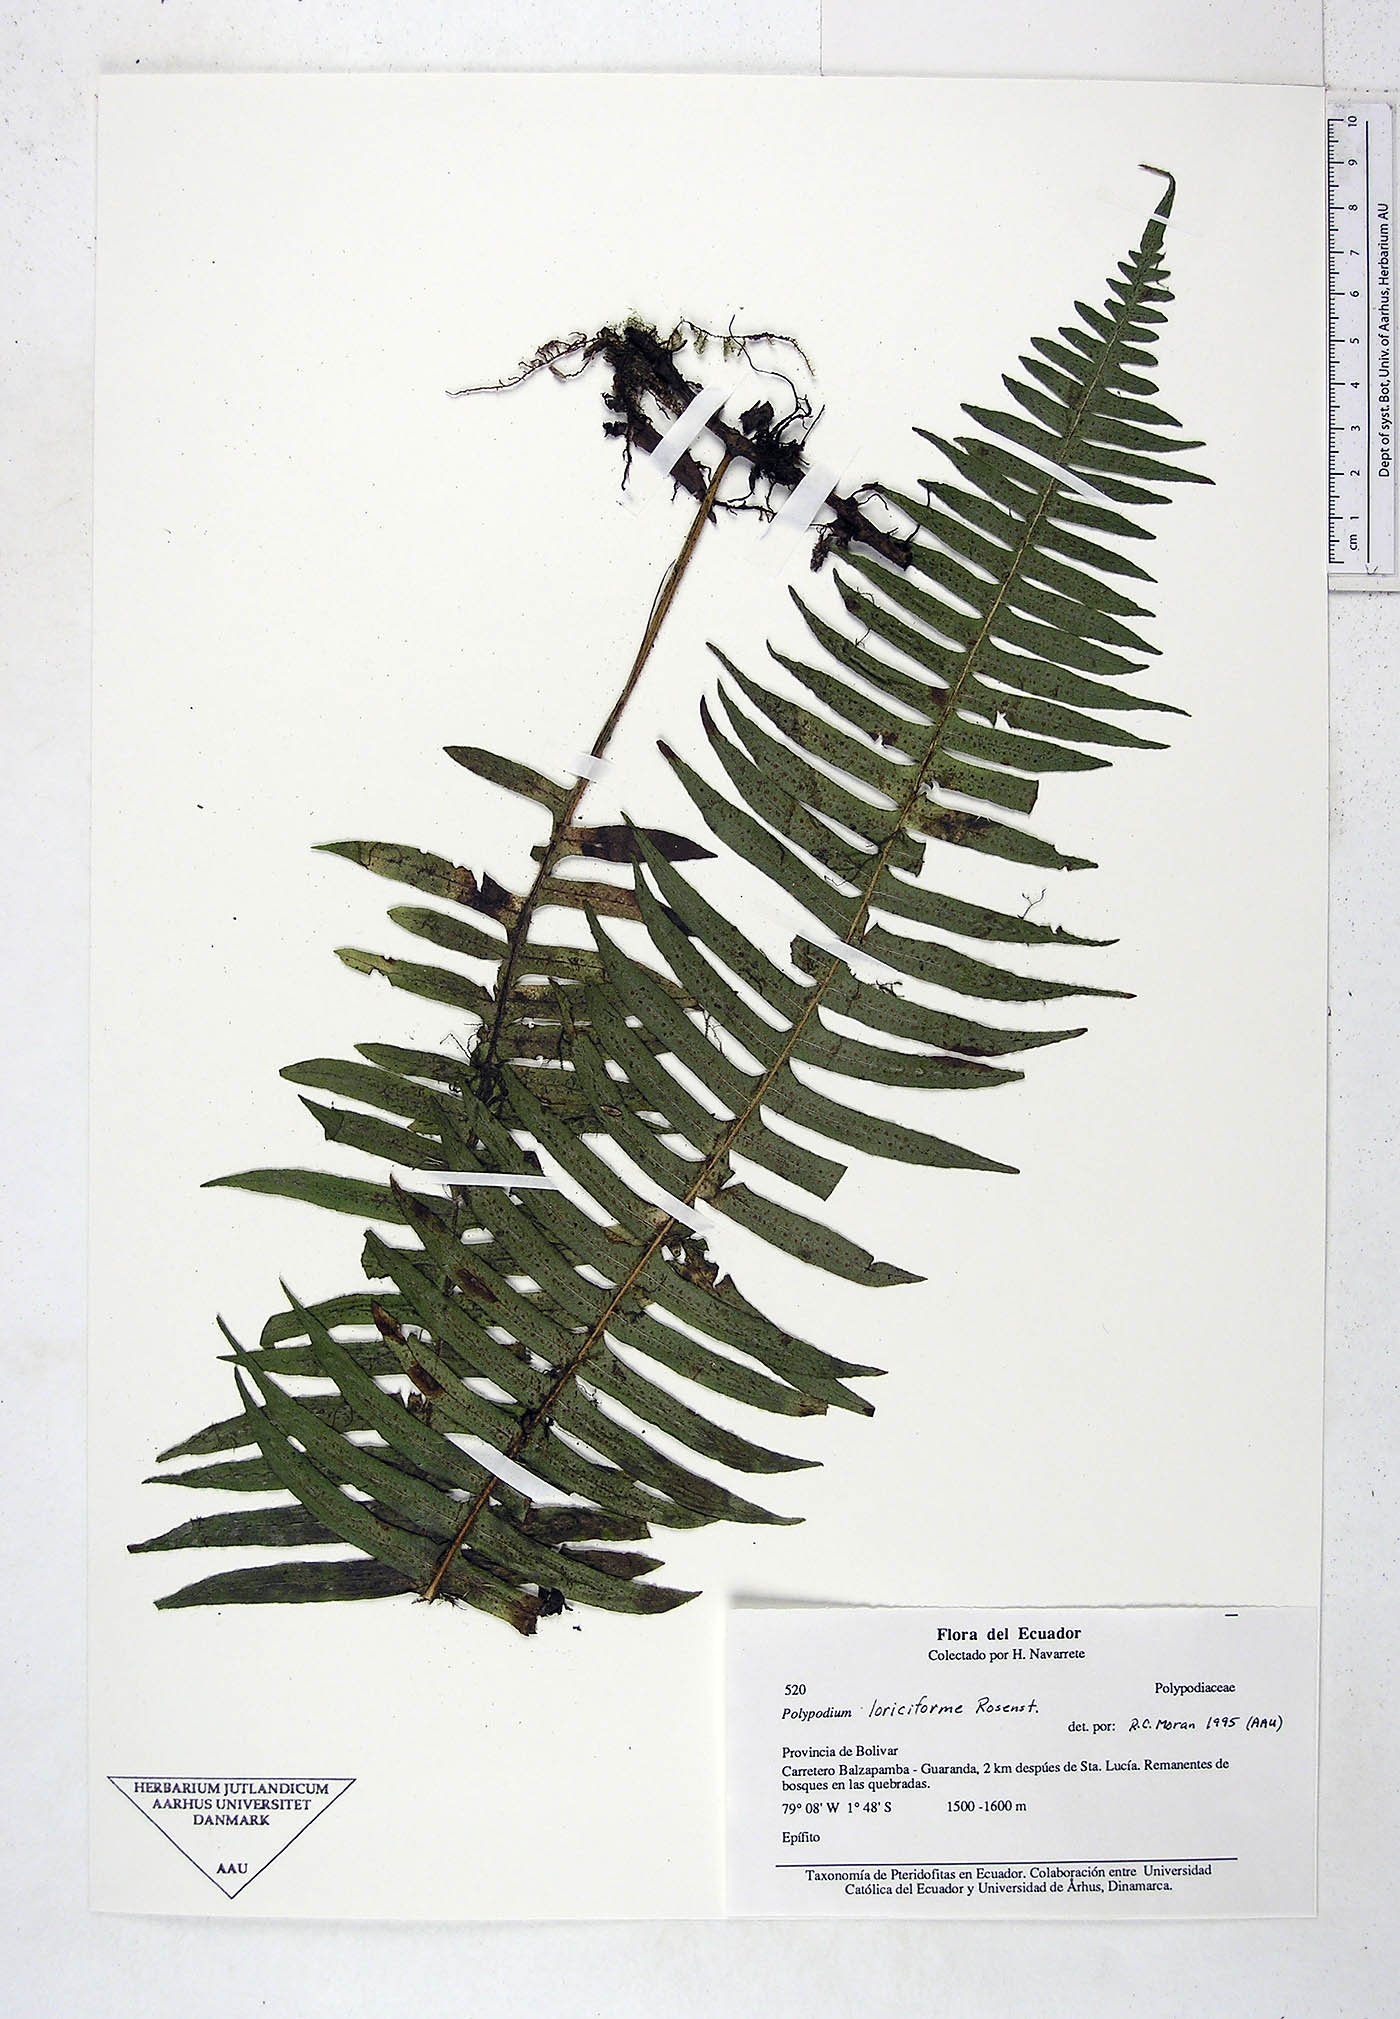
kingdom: Plantae
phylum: Tracheophyta
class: Polypodiopsida
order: Polypodiales
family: Polypodiaceae
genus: Serpocaulon
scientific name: Serpocaulon loriciforme
